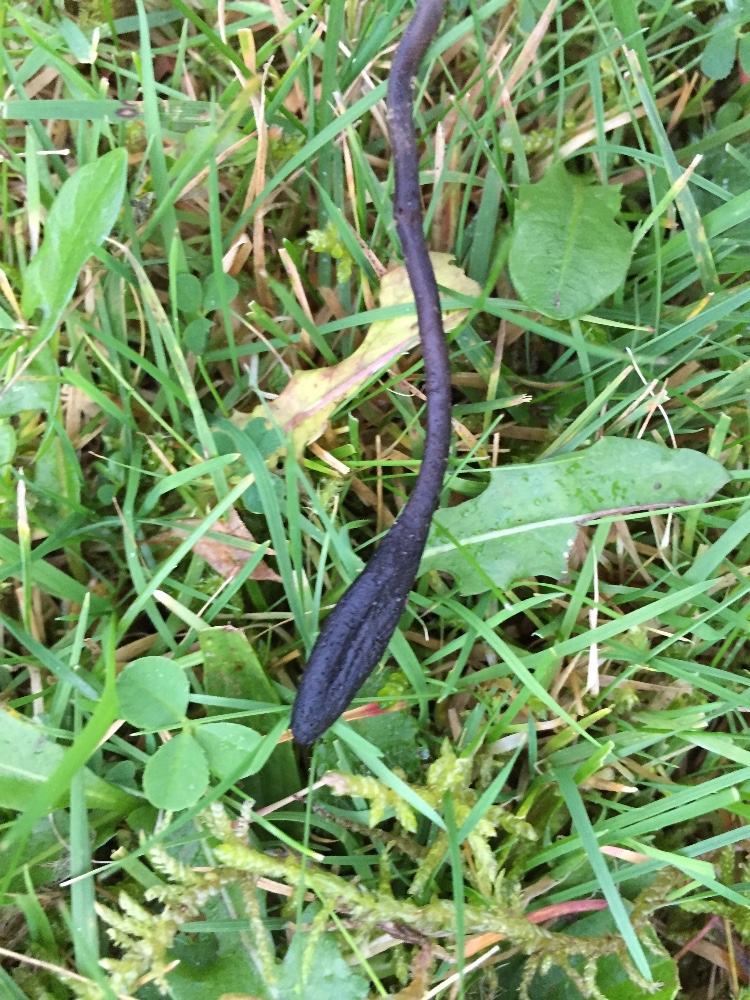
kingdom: Fungi
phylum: Ascomycota
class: Geoglossomycetes
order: Geoglossales
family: Geoglossaceae
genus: Geoglossum
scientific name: Geoglossum fallax
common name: småskællet jordtunge
